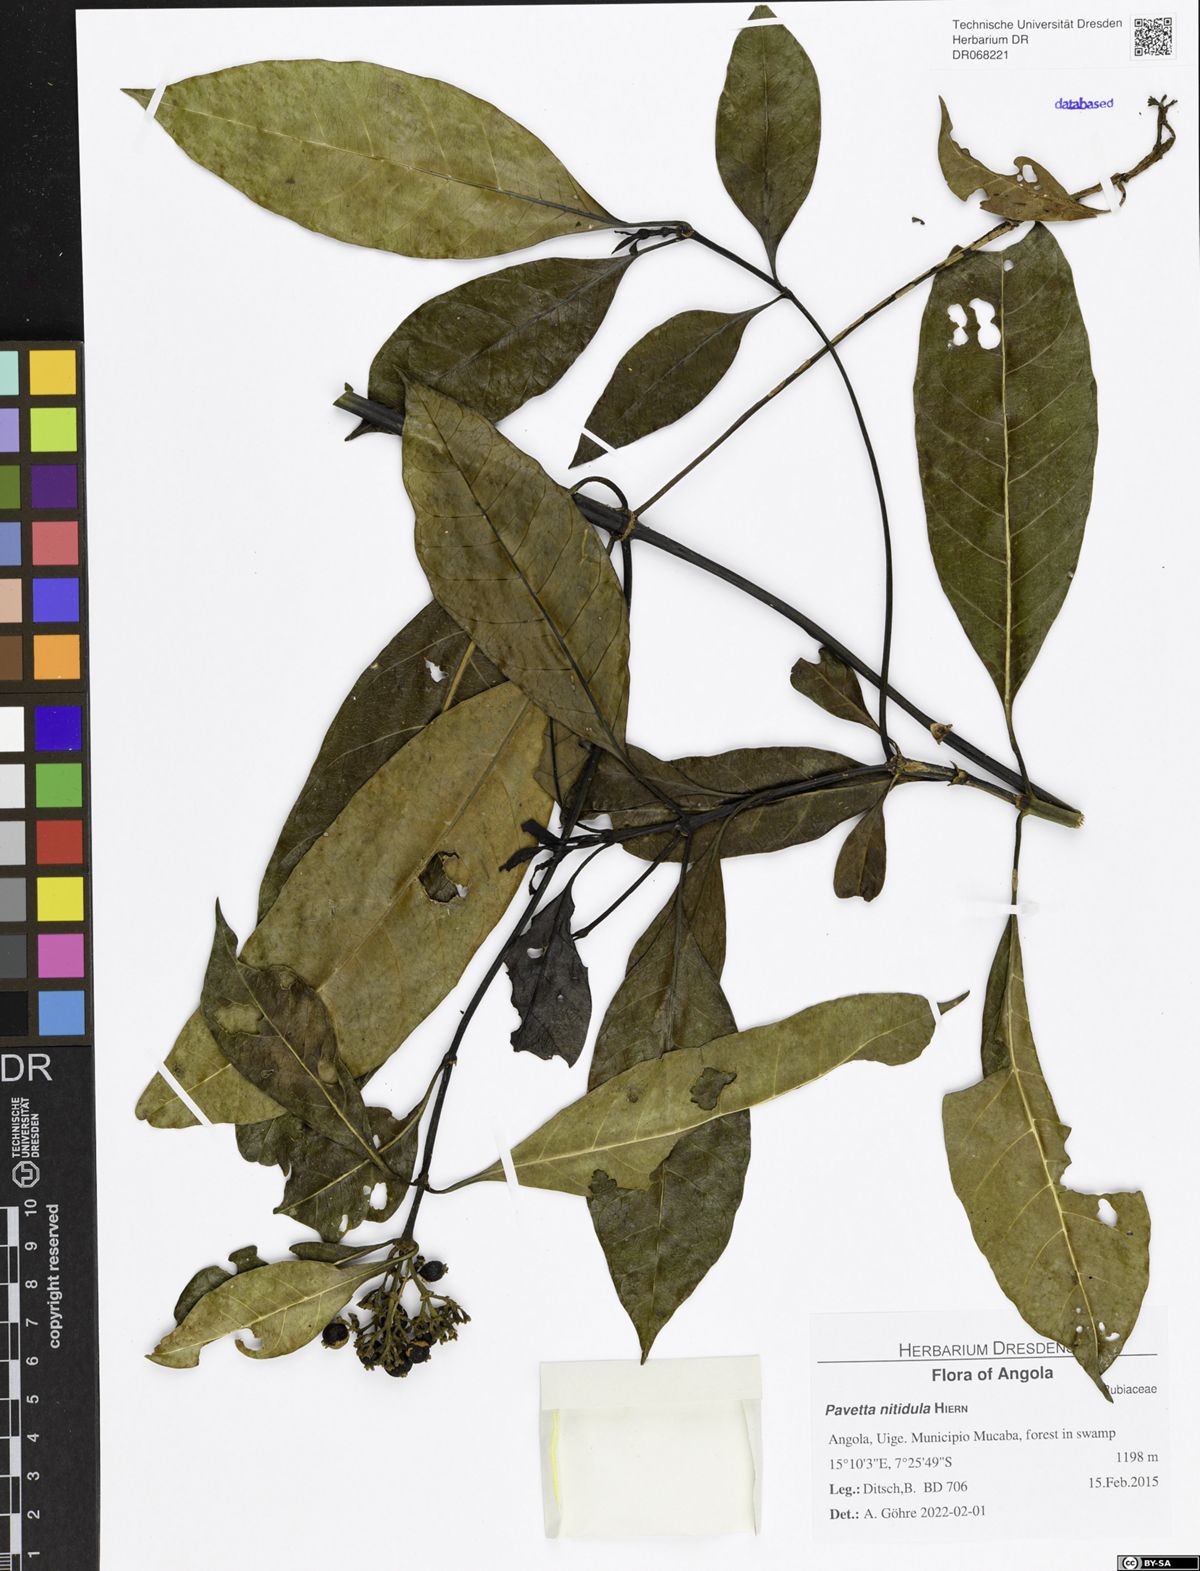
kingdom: Plantae
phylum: Tracheophyta
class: Magnoliopsida
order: Gentianales
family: Rubiaceae
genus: Pavetta
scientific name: Pavetta nitidula
